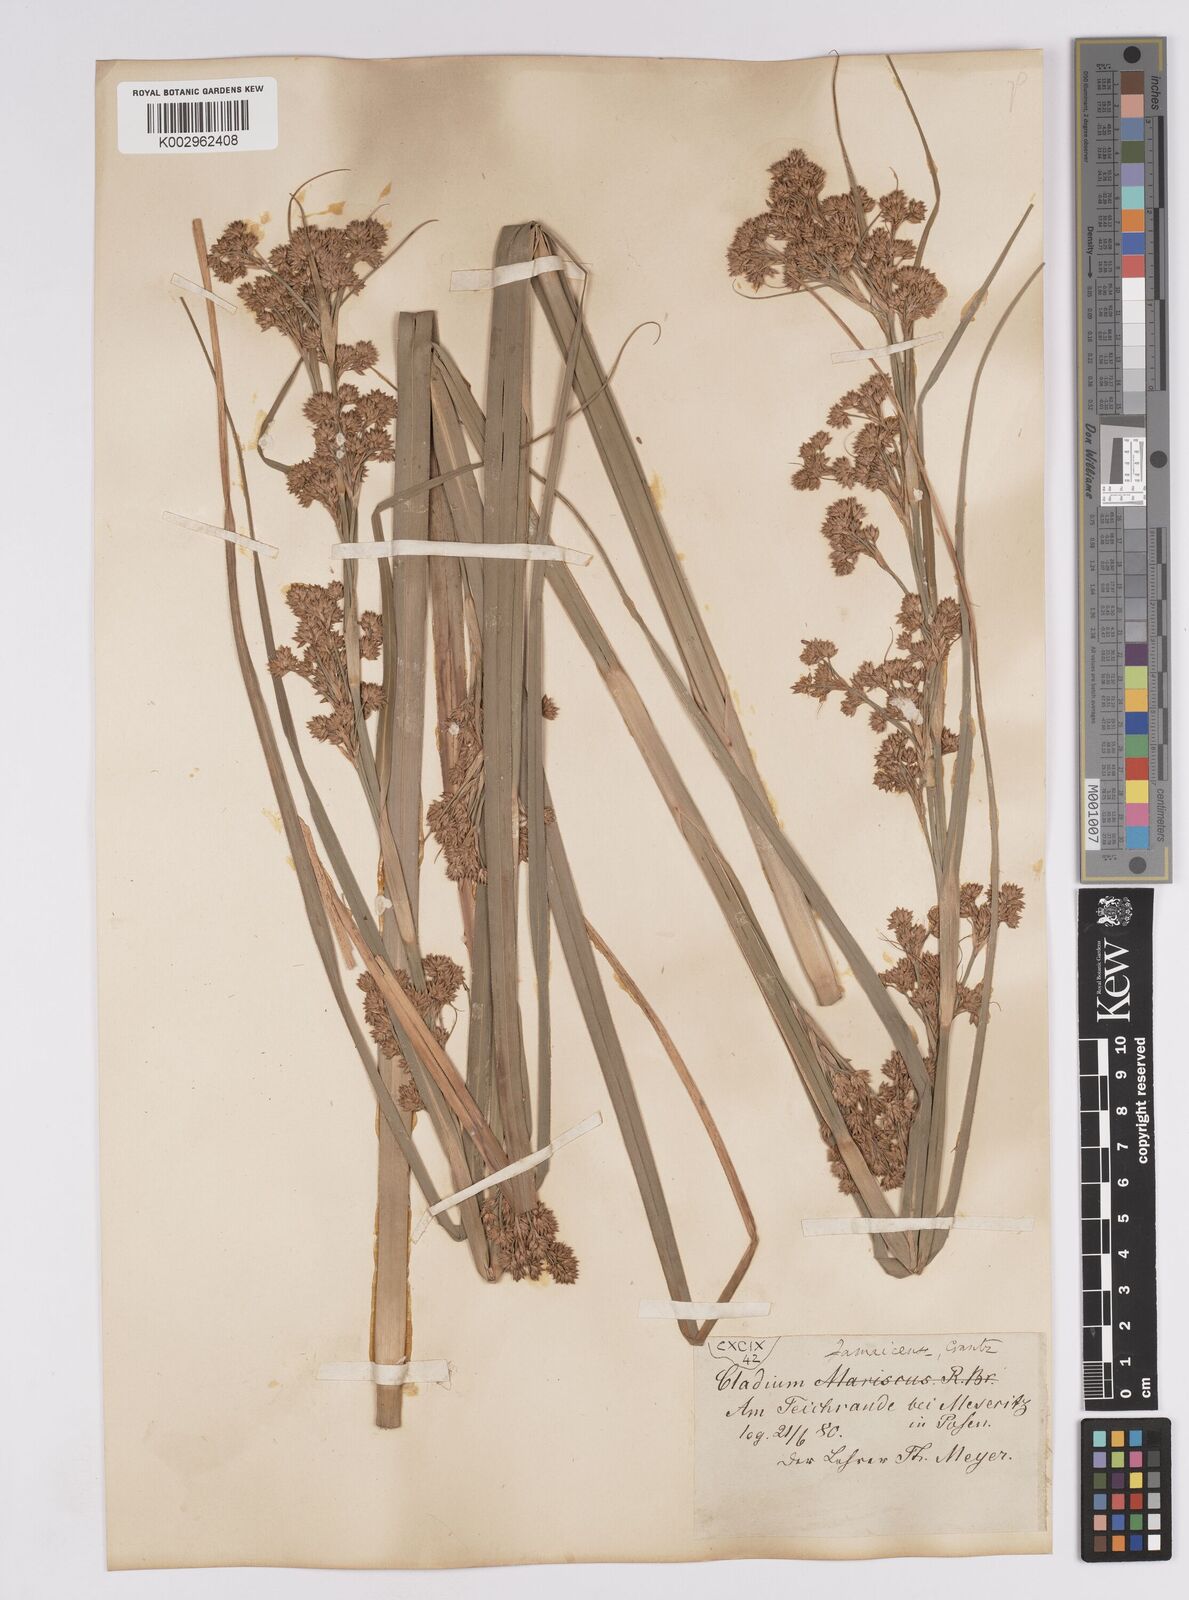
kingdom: Plantae
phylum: Tracheophyta
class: Liliopsida
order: Poales
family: Cyperaceae
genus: Cladium
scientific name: Cladium mariscus
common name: Great fen-sedge
